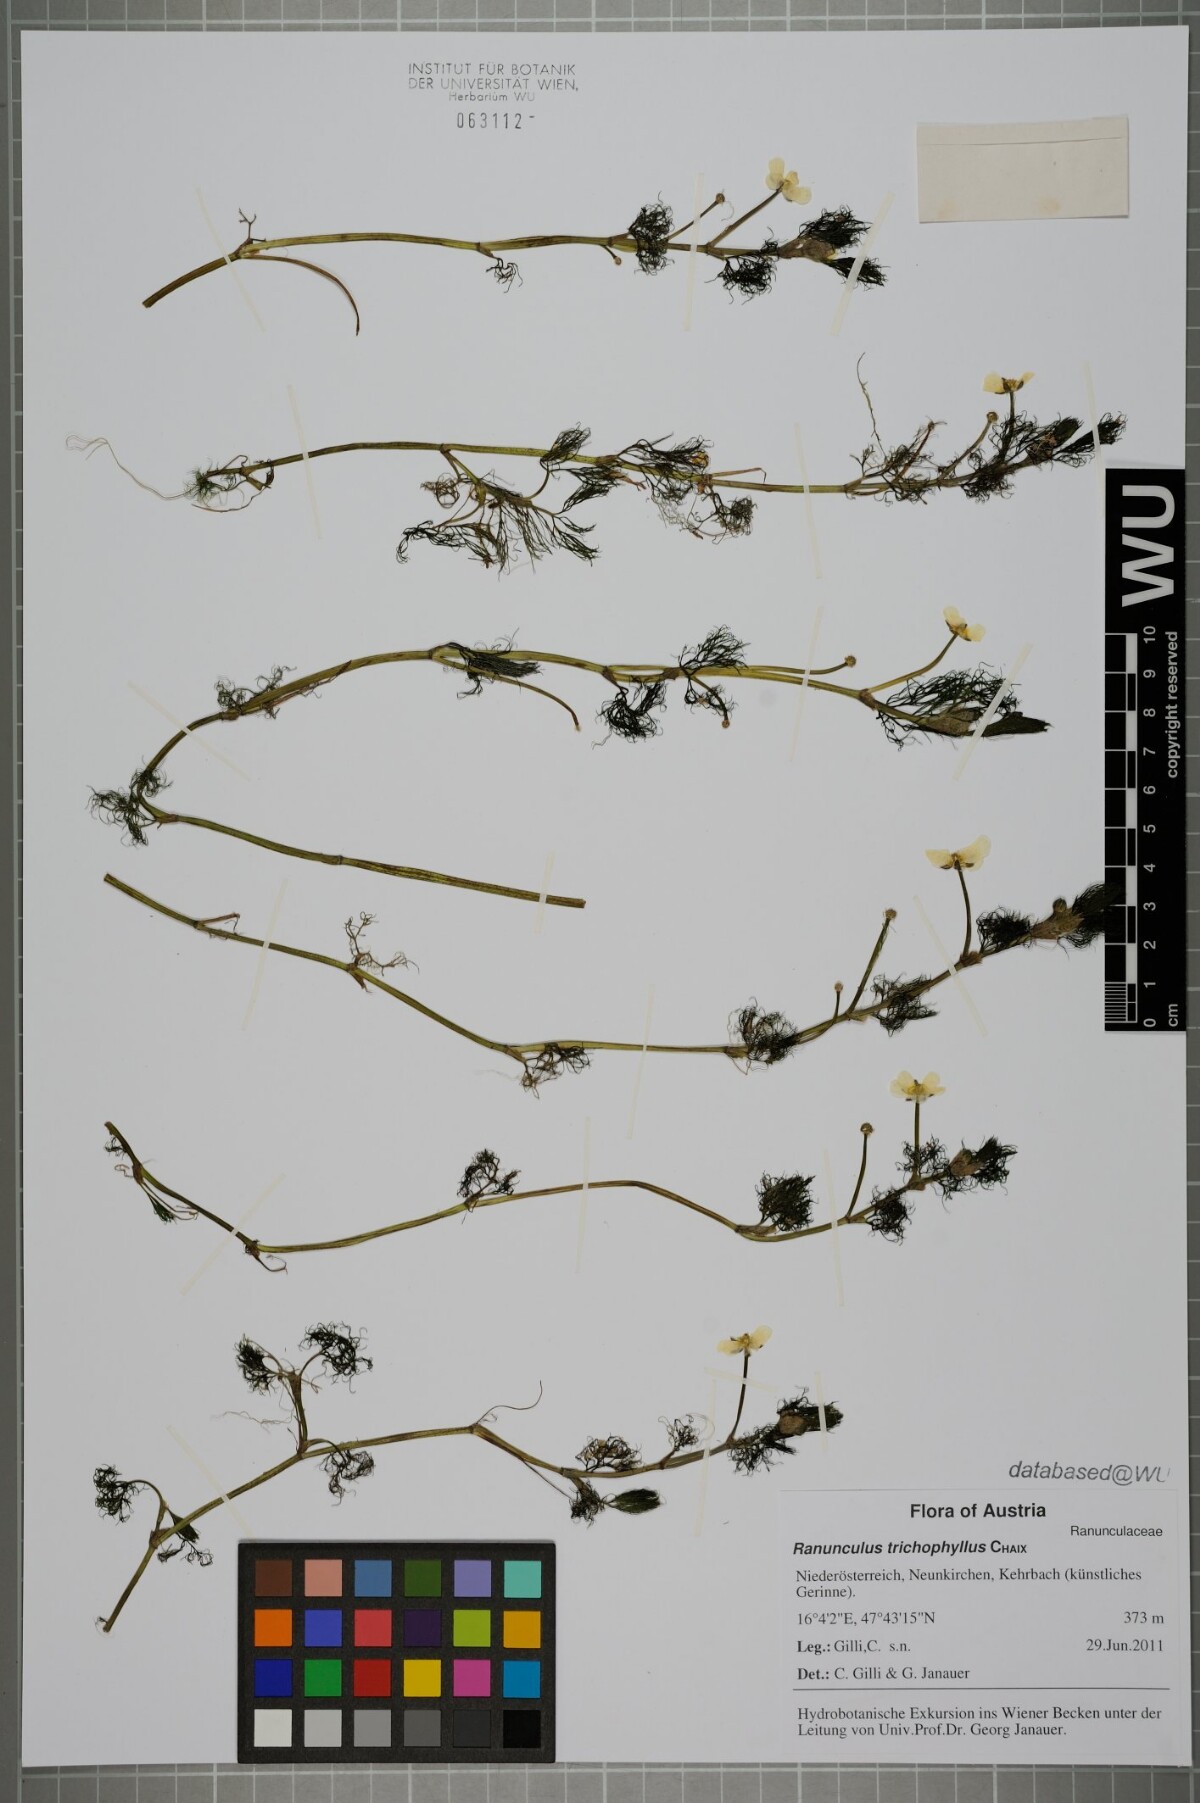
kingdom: Plantae
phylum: Tracheophyta
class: Magnoliopsida
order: Ranunculales
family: Ranunculaceae
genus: Ranunculus
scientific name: Ranunculus trichophyllus
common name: Thread-leaved water-crowfoot
